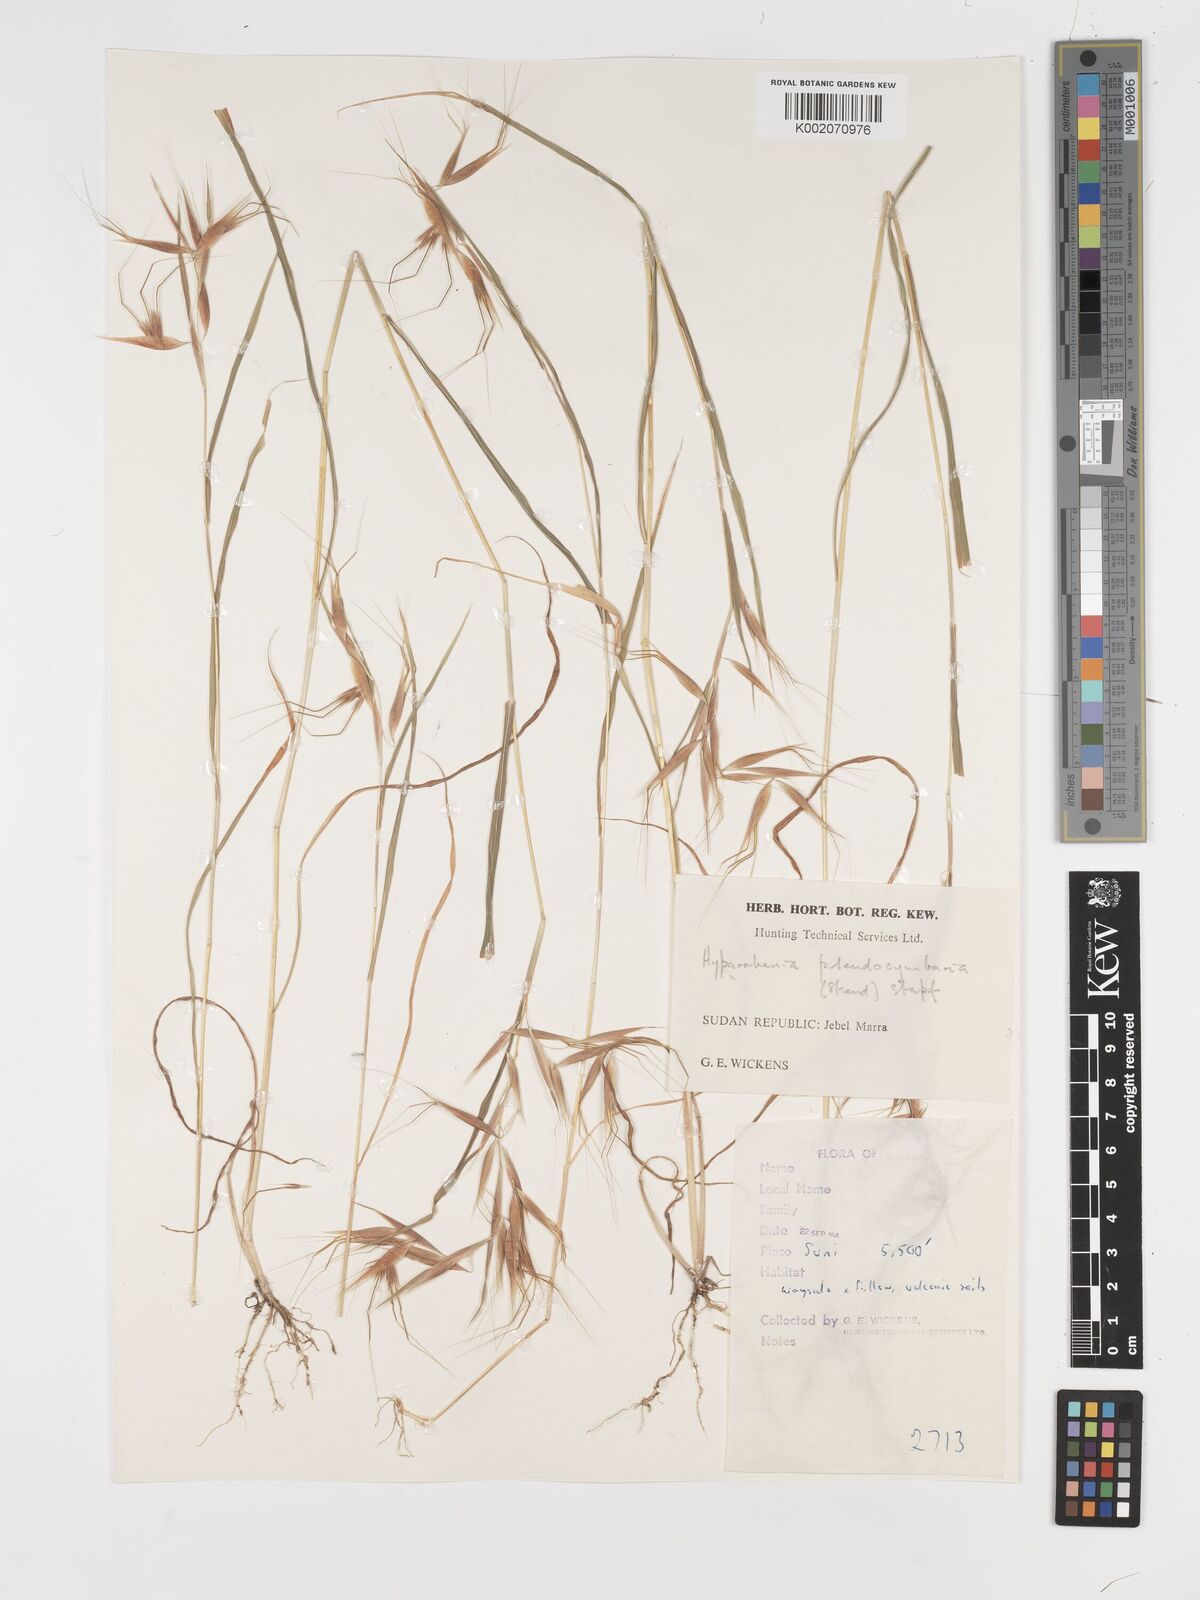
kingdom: Plantae
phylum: Tracheophyta
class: Liliopsida
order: Poales
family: Poaceae
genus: Hyparrhenia
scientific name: Hyparrhenia anthistirioides
